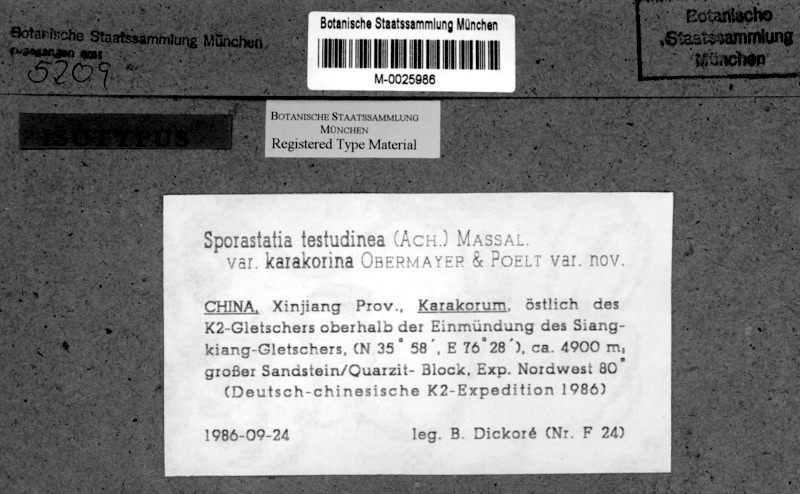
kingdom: Fungi
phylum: Ascomycota
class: Lecanoromycetes
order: Rhizocarpales
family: Sporastatiaceae
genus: Sporastatia
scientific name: Sporastatia karakorina
